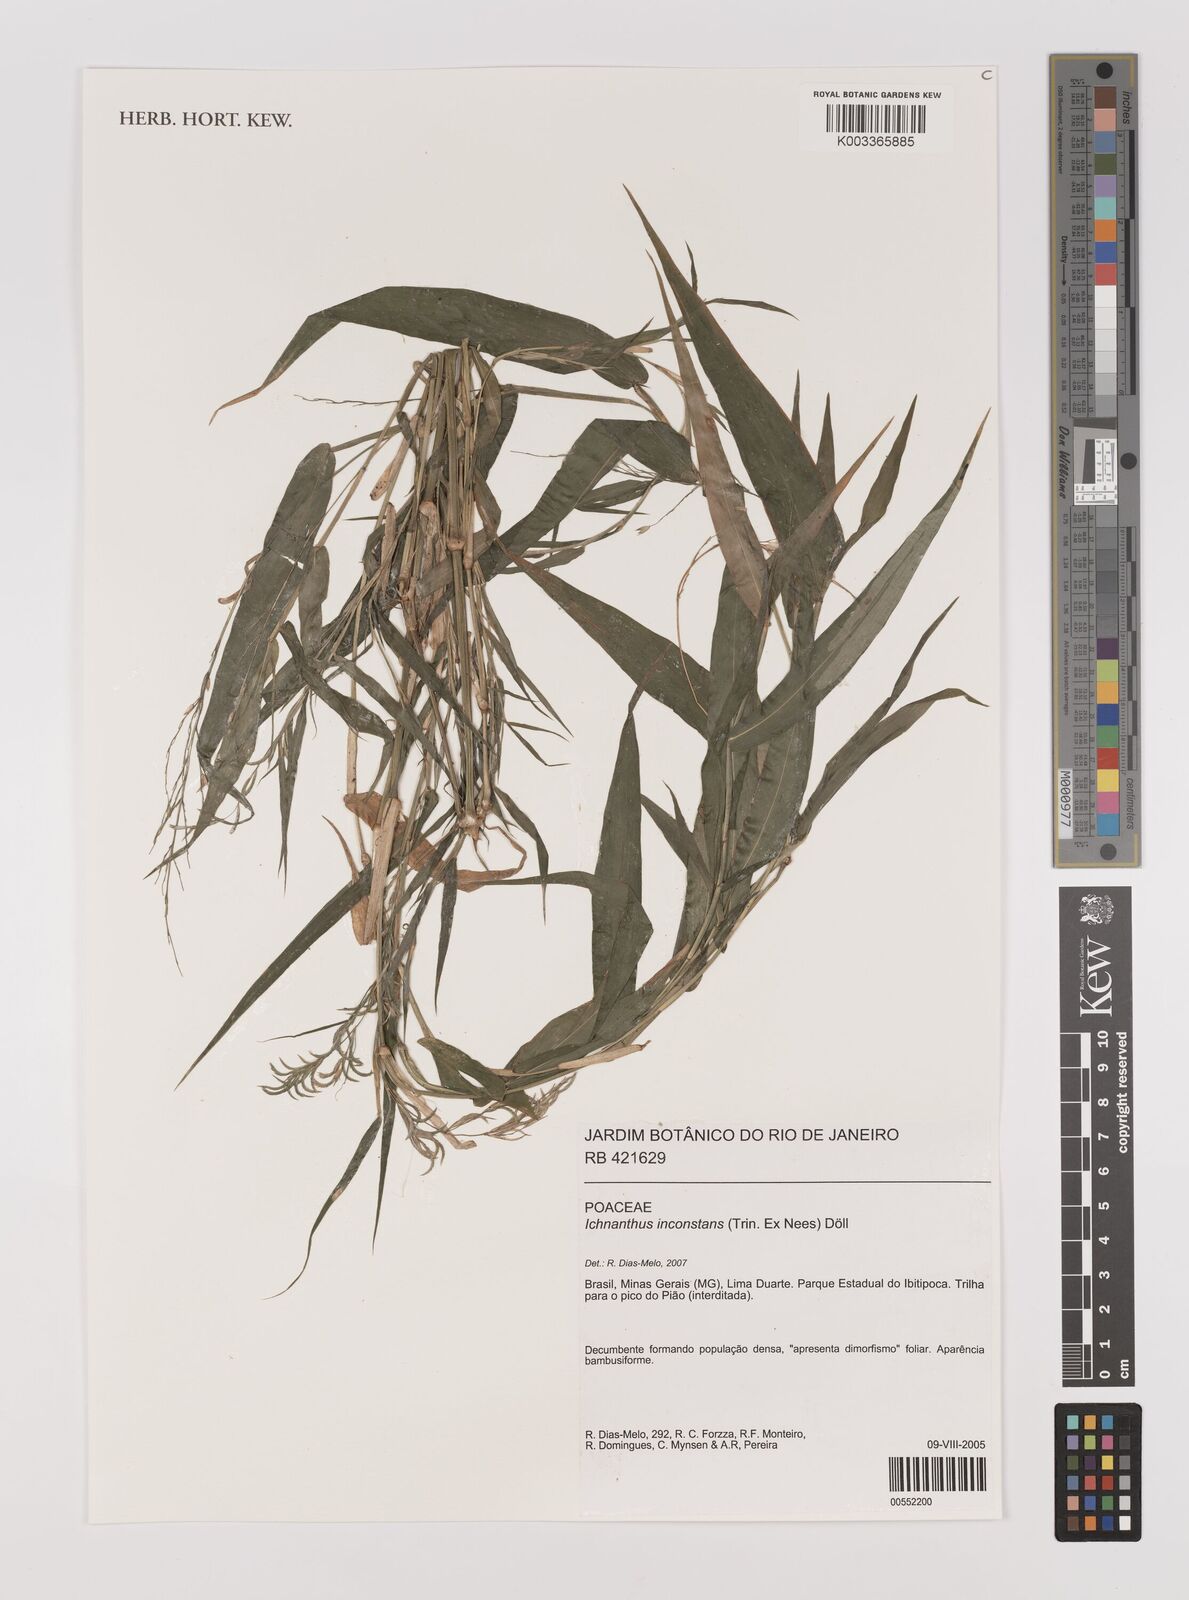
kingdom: Plantae
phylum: Tracheophyta
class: Liliopsida
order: Poales
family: Poaceae
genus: Ichnanthus
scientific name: Ichnanthus inconstans
